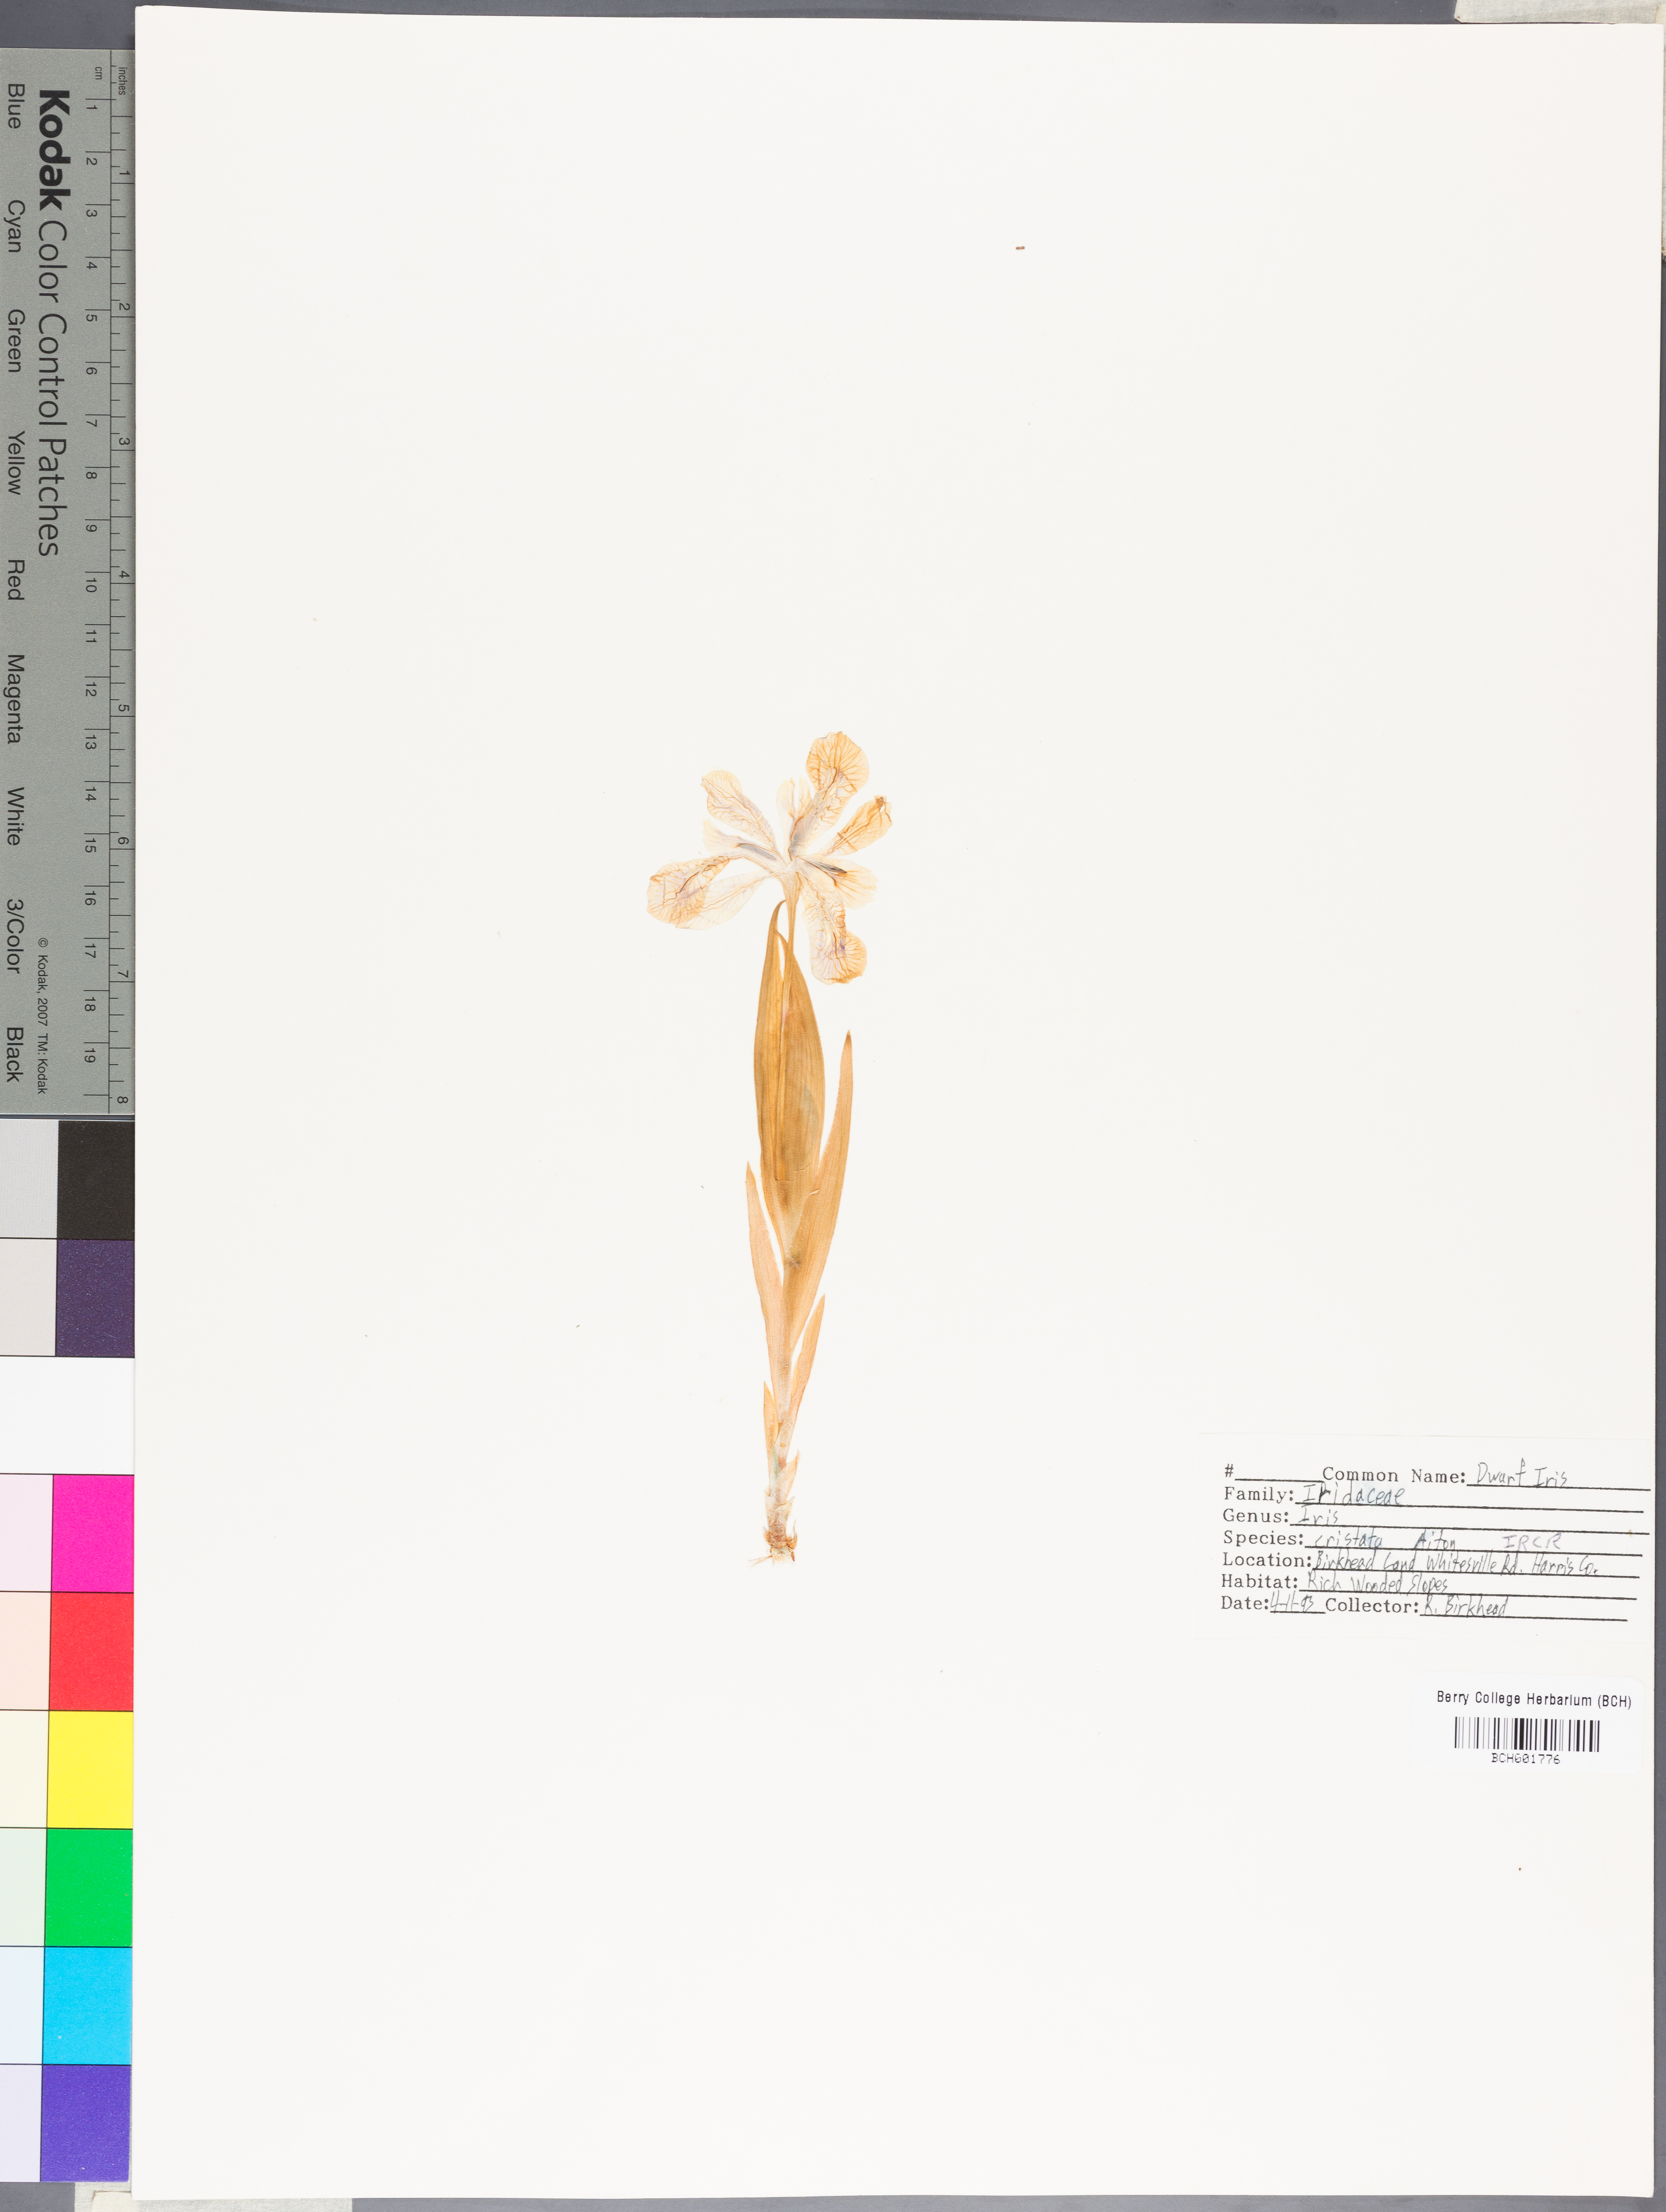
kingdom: Plantae
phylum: Tracheophyta
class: Liliopsida
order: Asparagales
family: Iridaceae
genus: Iris
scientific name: Iris cristata
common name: Crested iris
